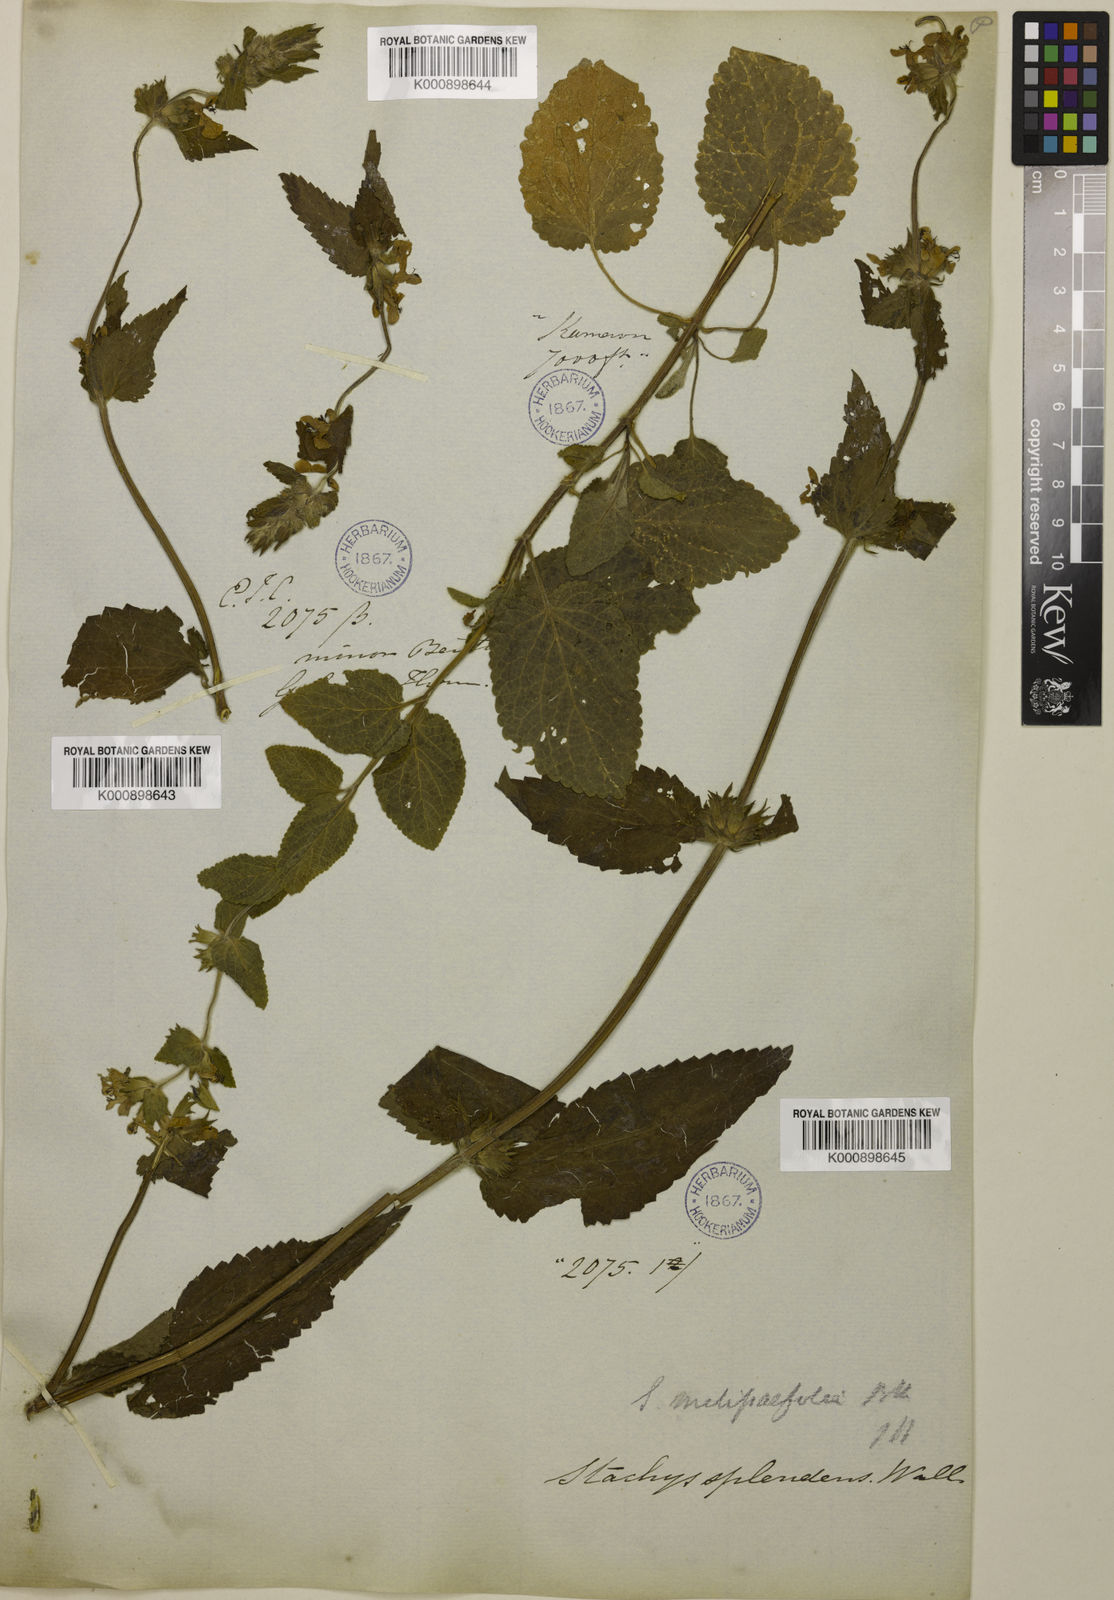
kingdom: Plantae
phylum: Tracheophyta
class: Magnoliopsida
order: Lamiales
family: Lamiaceae
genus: Stachys
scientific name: Stachys splendens
